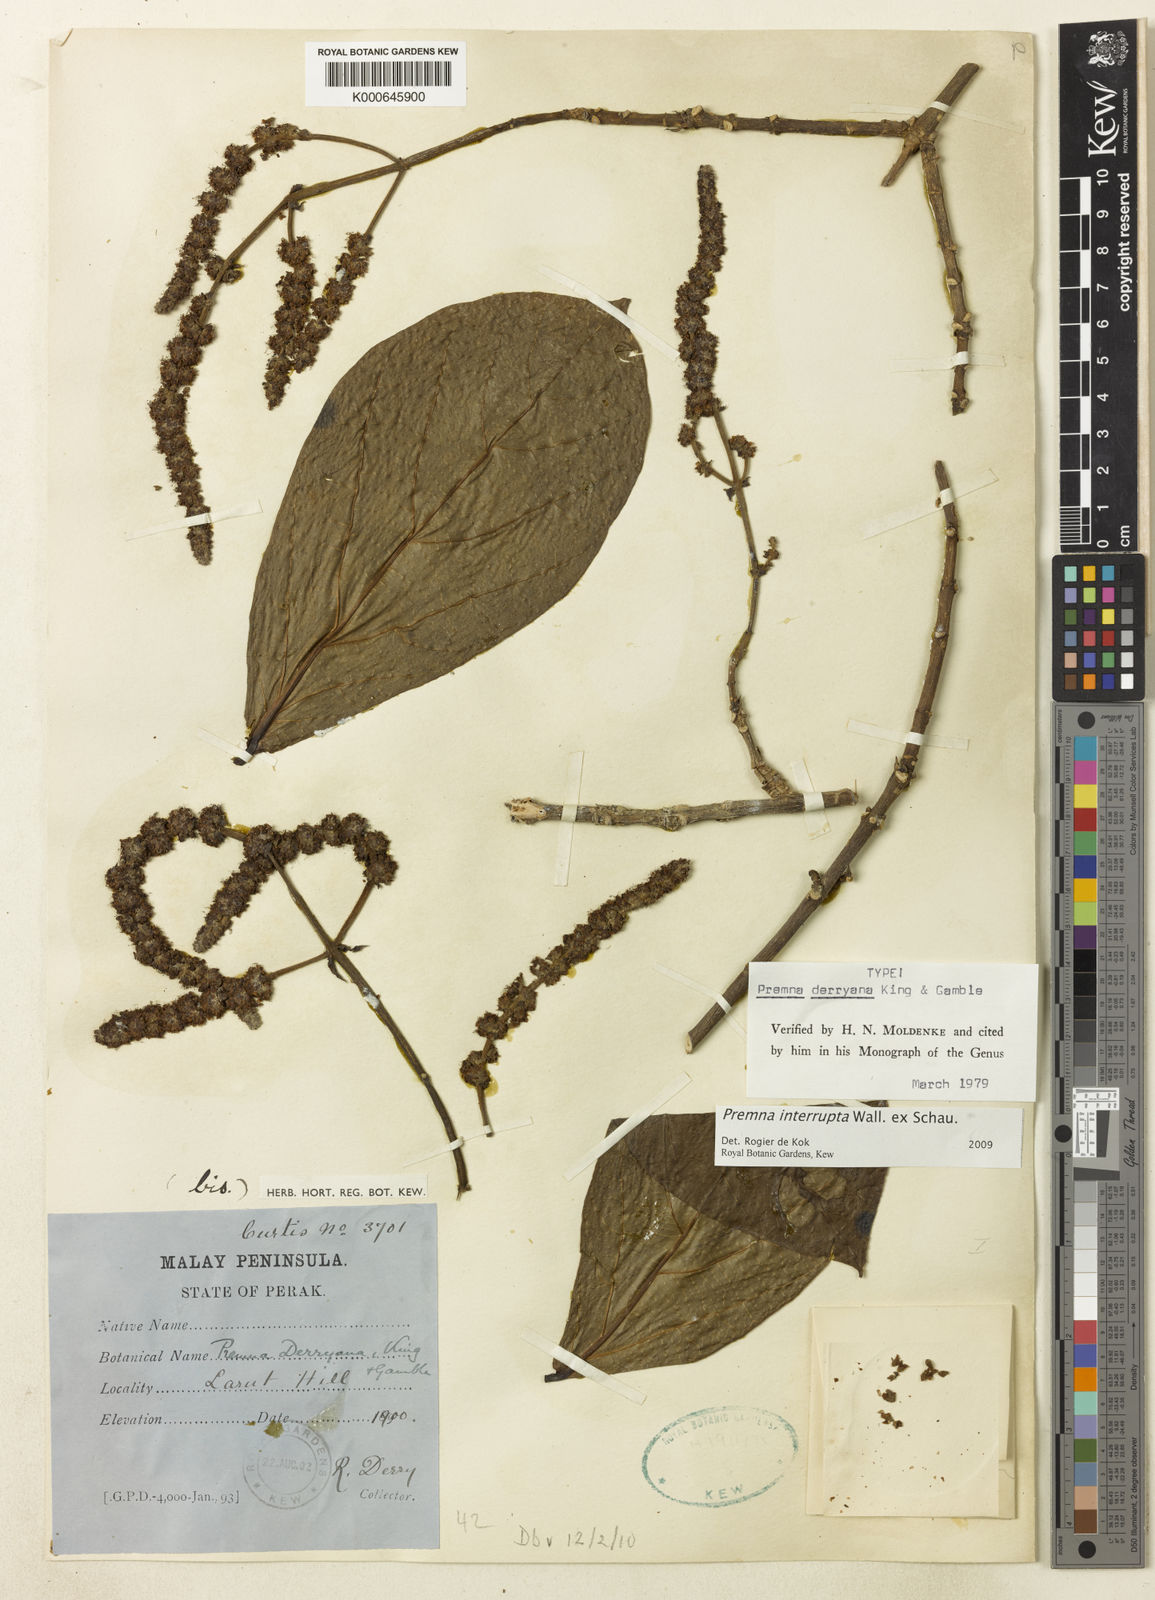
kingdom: Plantae
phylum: Tracheophyta
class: Magnoliopsida
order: Lamiales
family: Lamiaceae
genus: Premna
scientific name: Premna interrupta
